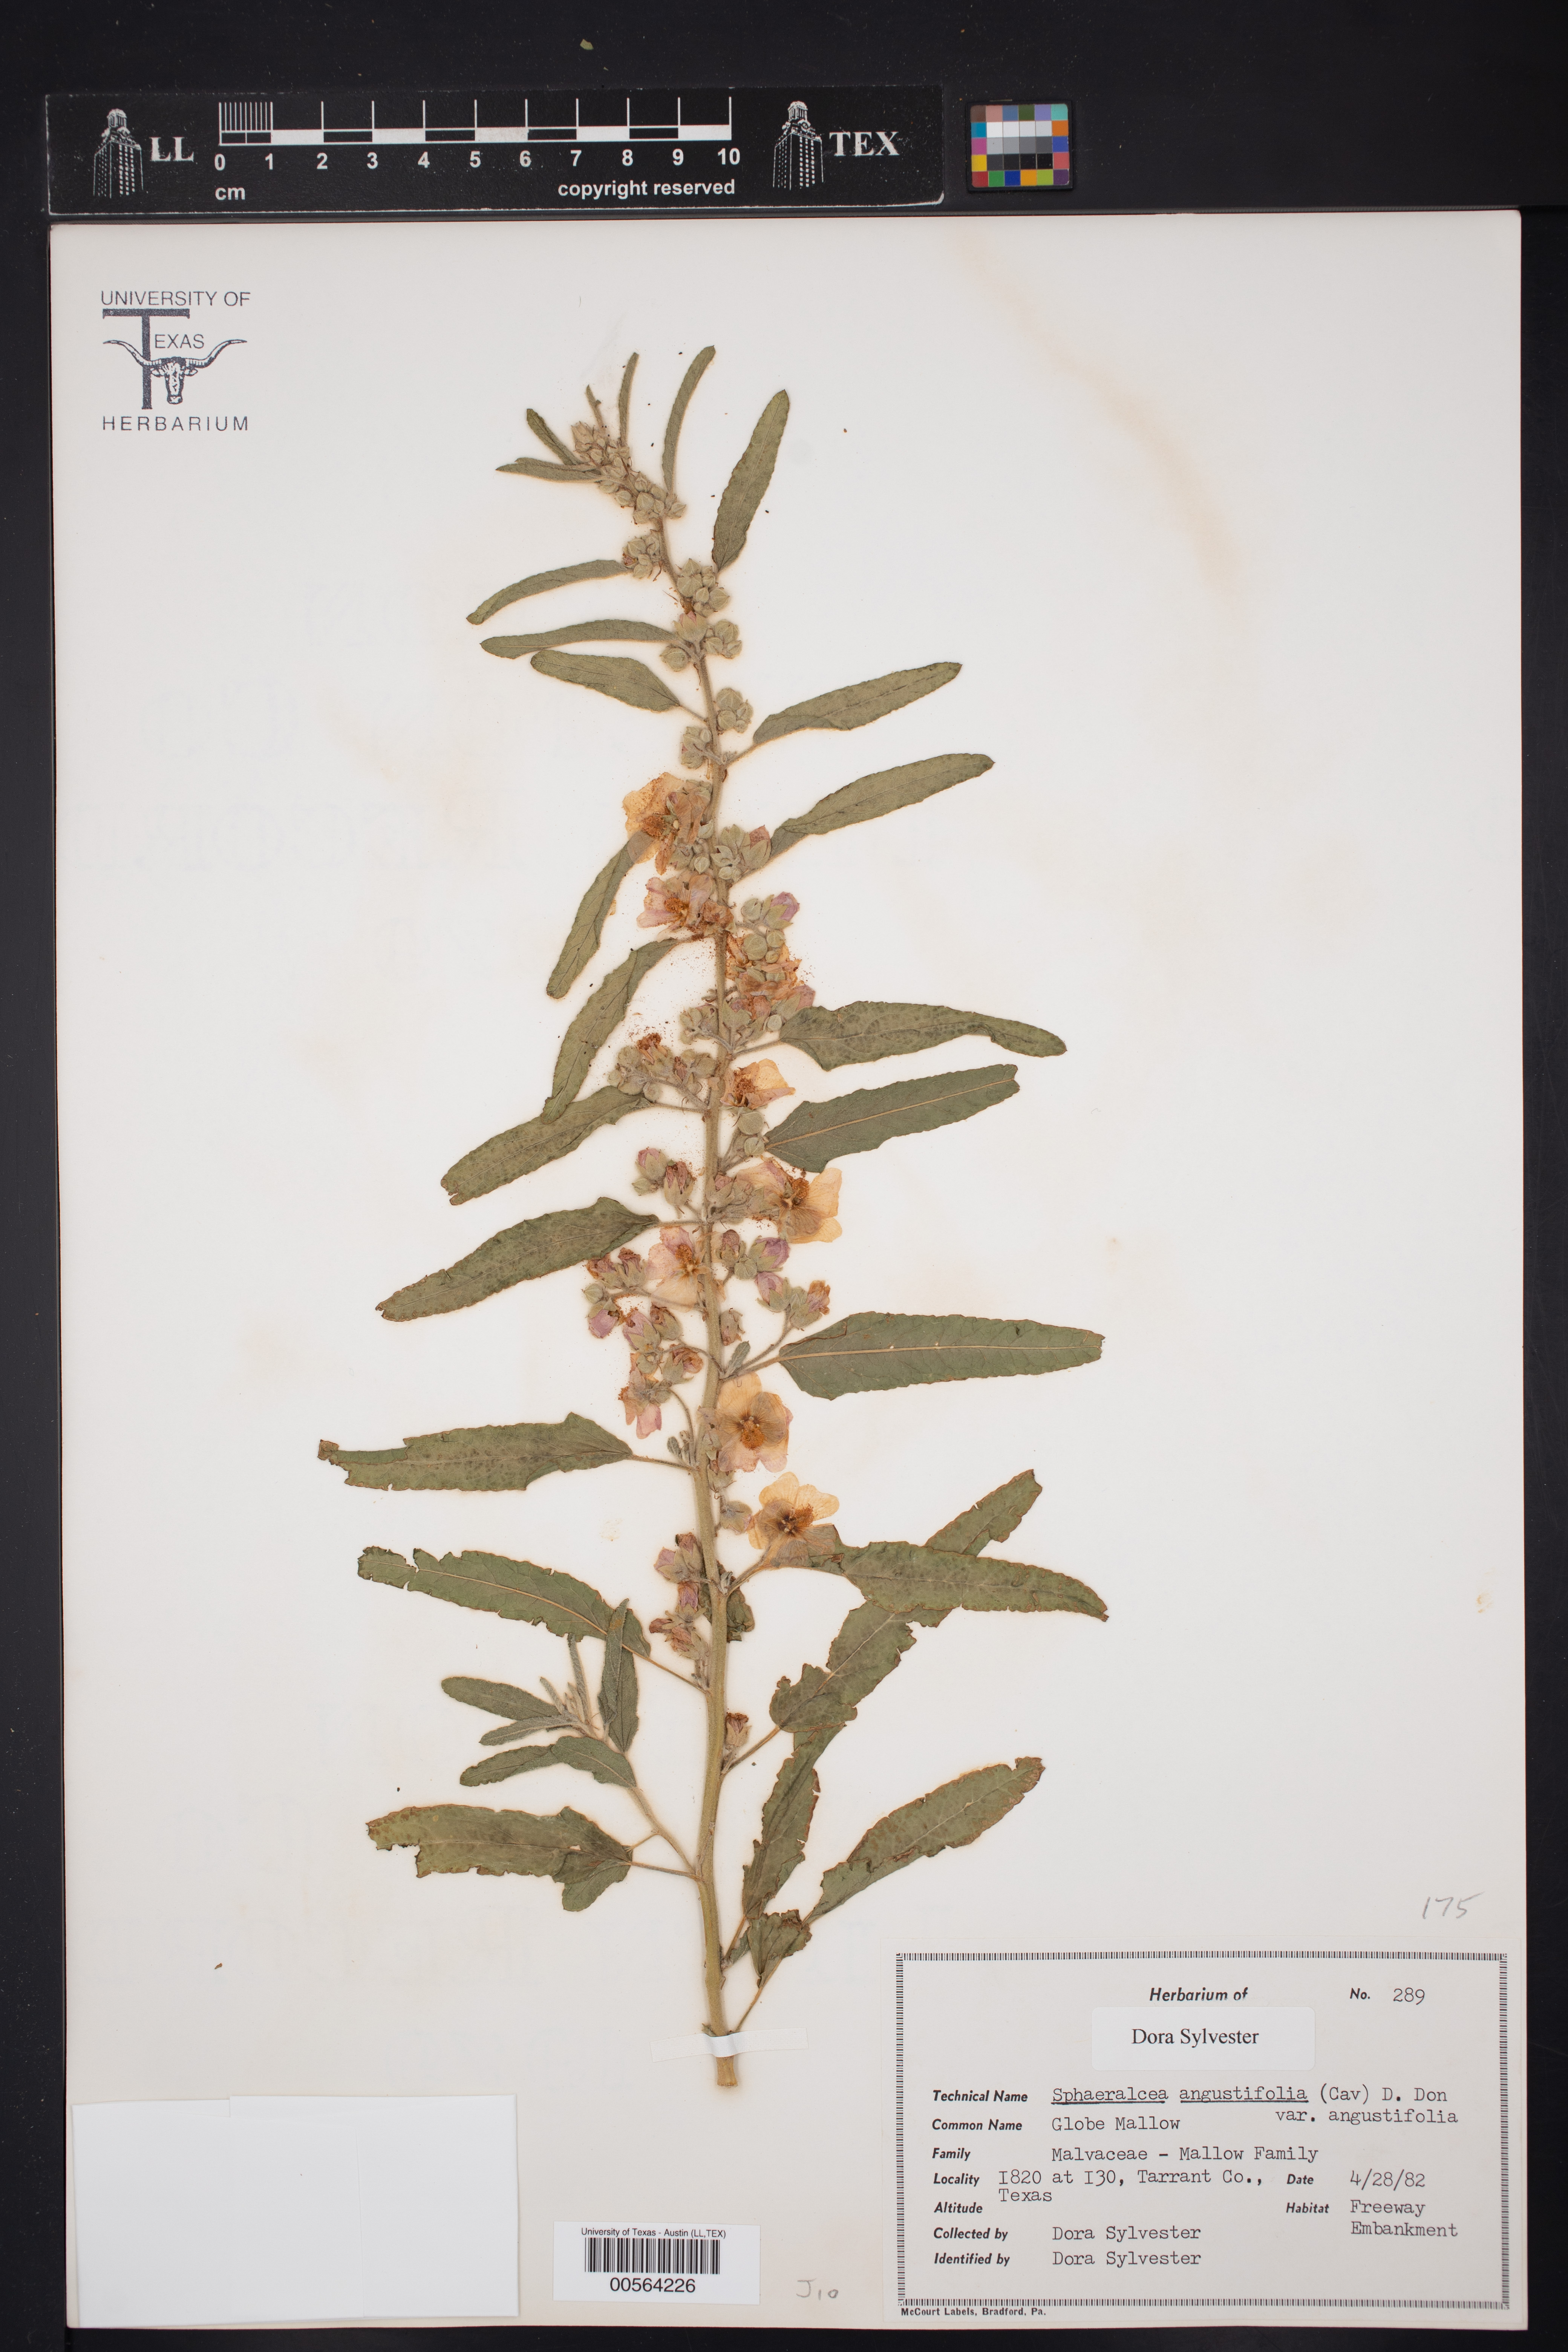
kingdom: Plantae
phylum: Tracheophyta
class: Magnoliopsida
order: Malvales
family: Malvaceae
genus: Sphaeralcea
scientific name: Sphaeralcea angustifolia
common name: Copper globe-mallow
